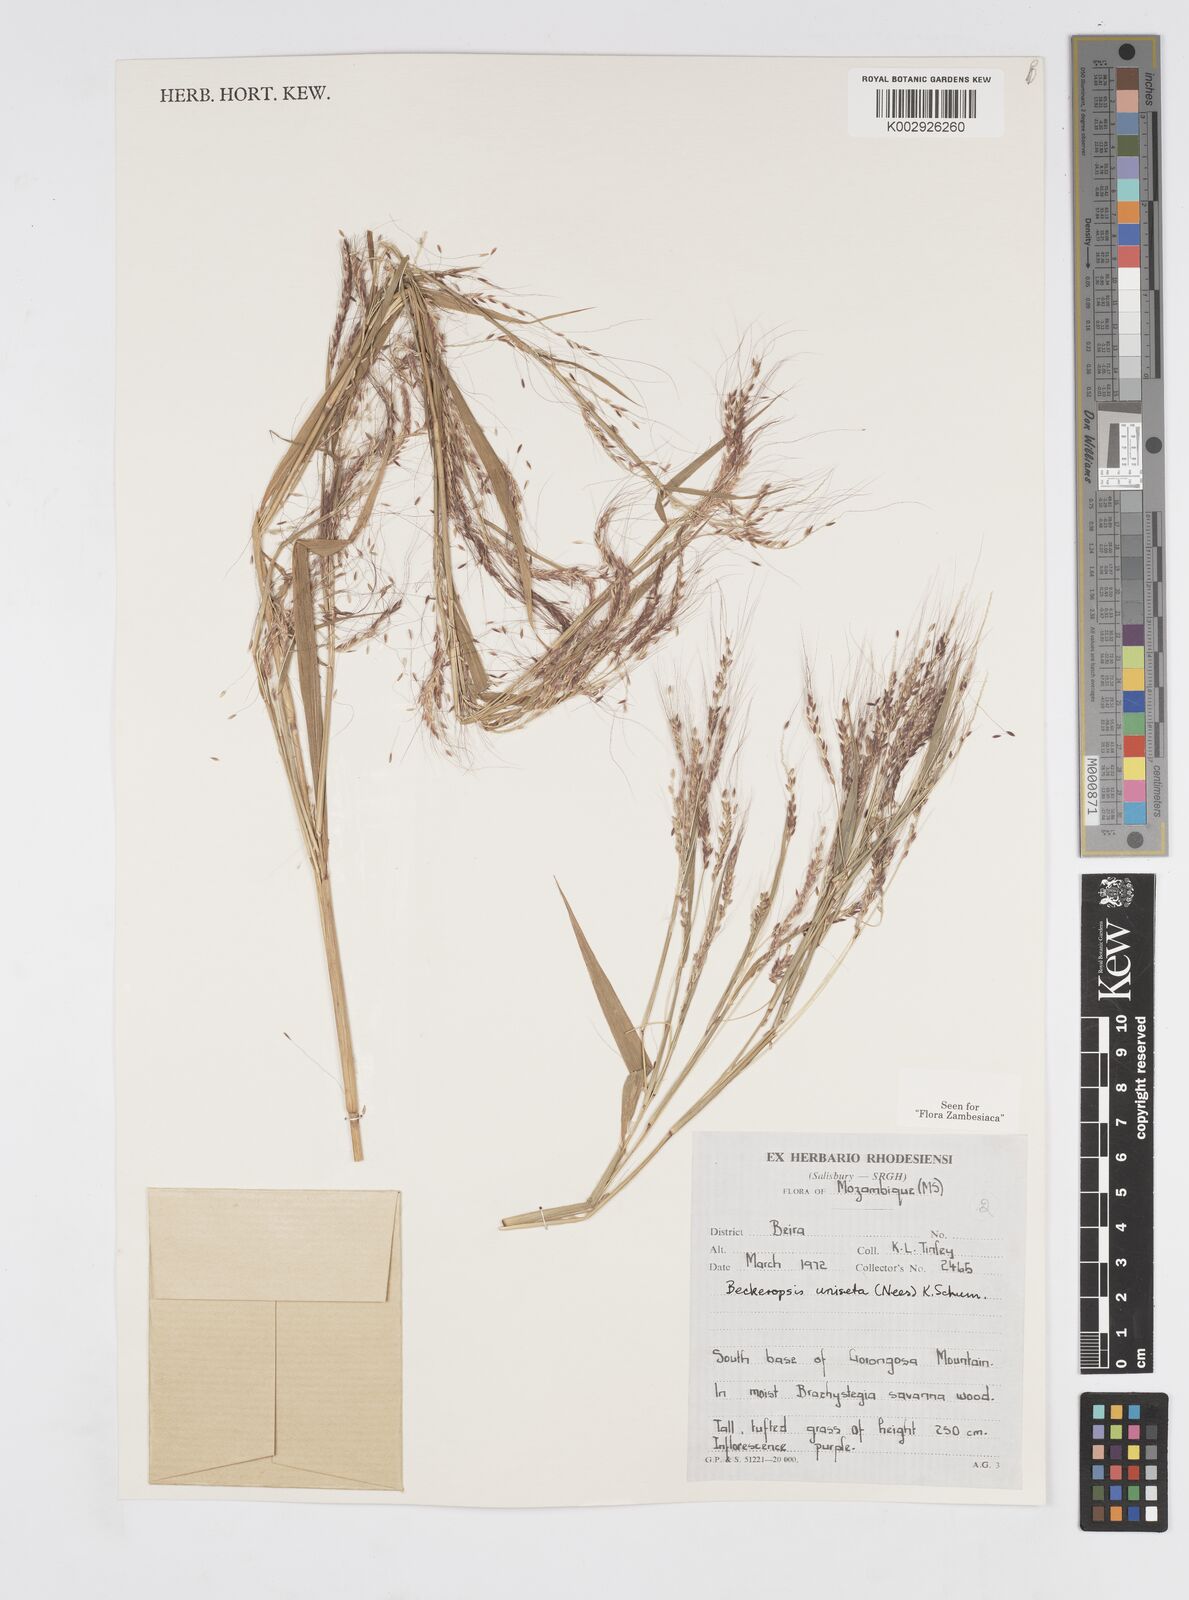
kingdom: Plantae
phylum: Tracheophyta
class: Liliopsida
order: Poales
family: Poaceae
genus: Cenchrus
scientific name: Cenchrus unisetus
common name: Natal grass
